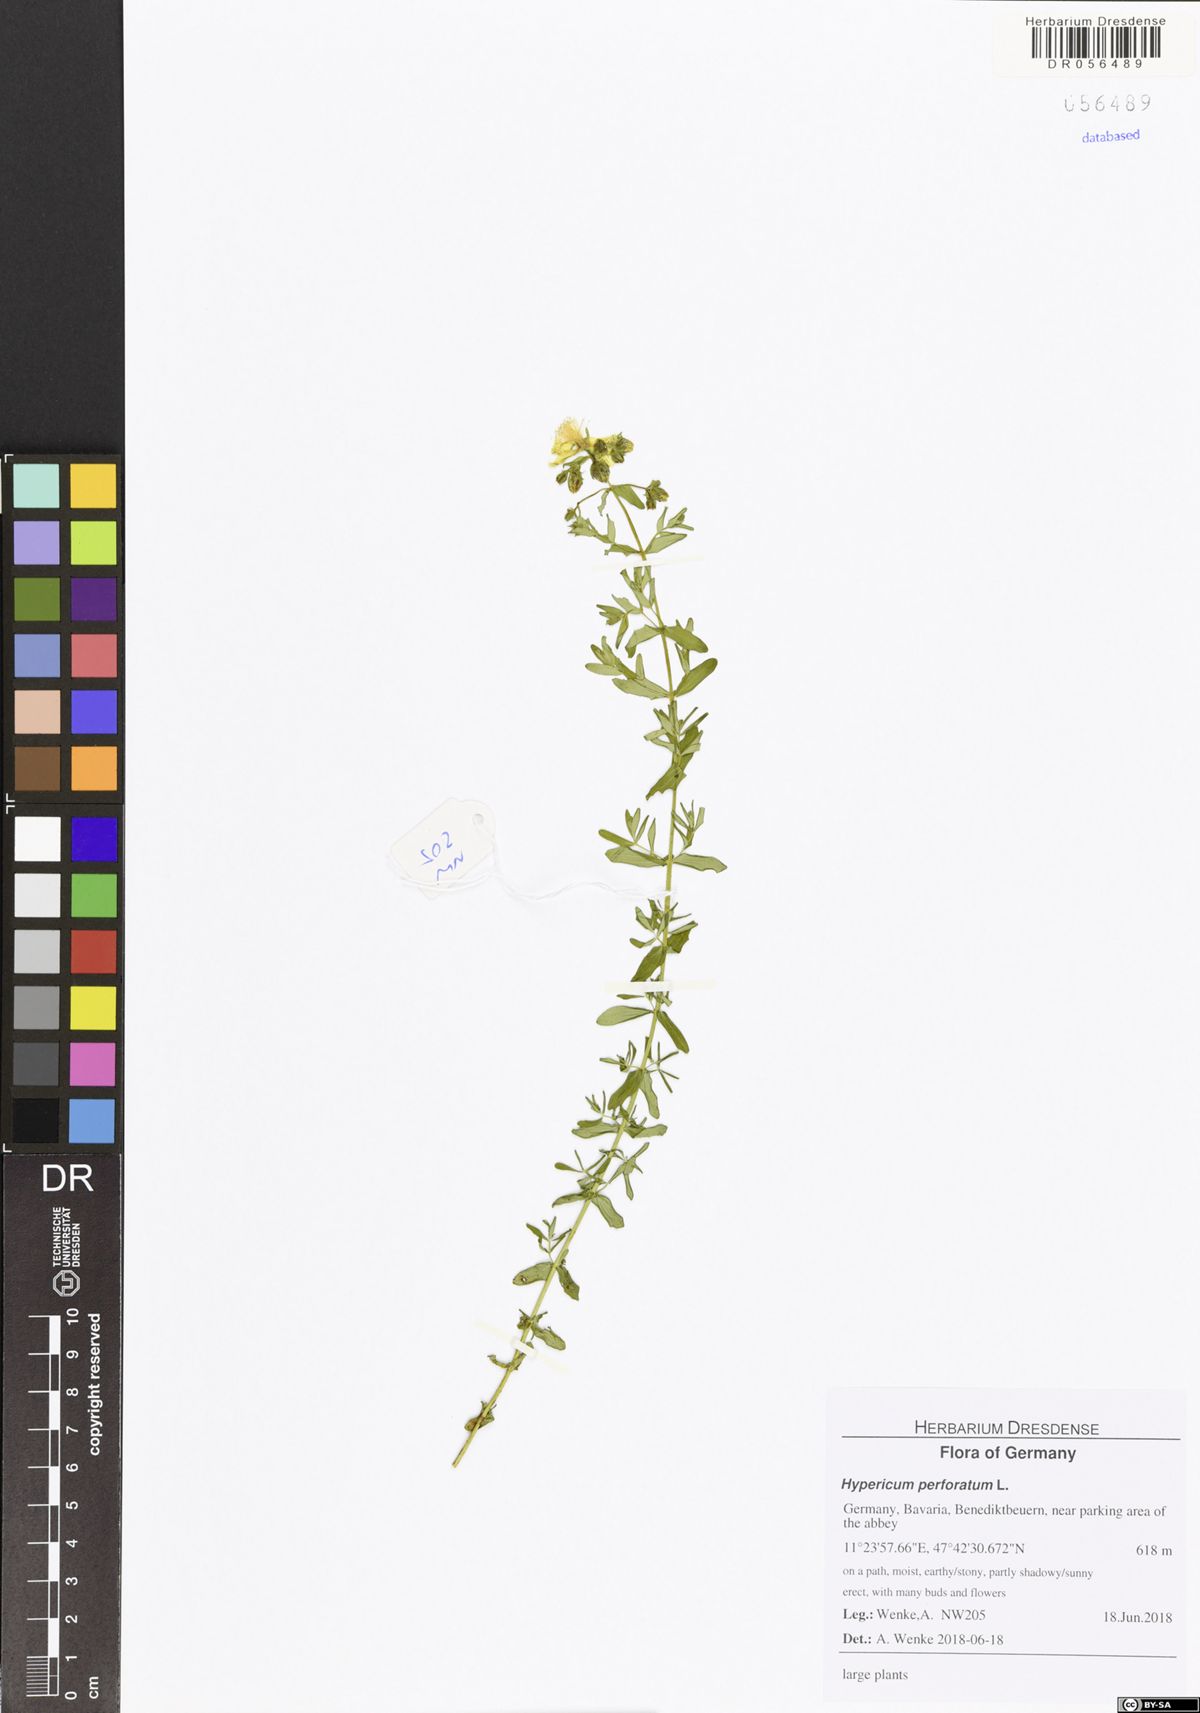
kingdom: Plantae
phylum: Tracheophyta
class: Magnoliopsida
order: Malpighiales
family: Hypericaceae
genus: Hypericum
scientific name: Hypericum perforatum
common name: Common st. johnswort
